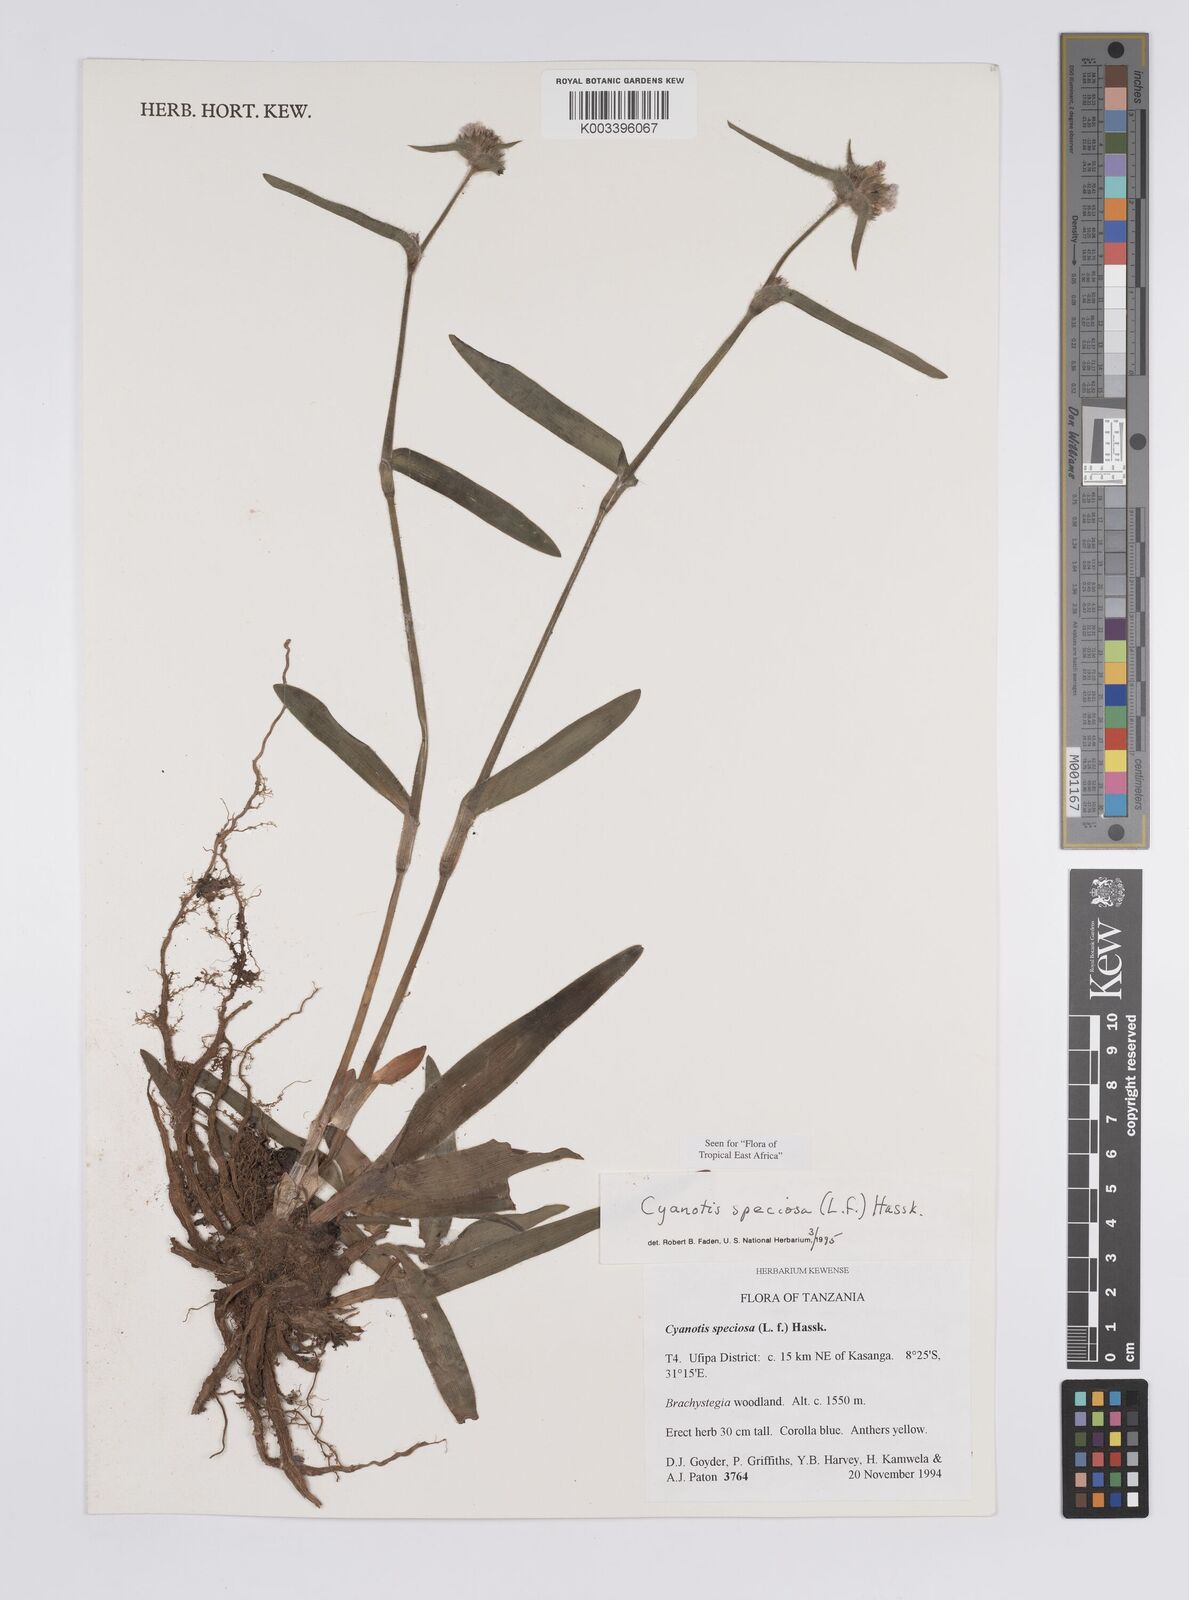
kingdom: Plantae
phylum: Tracheophyta
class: Liliopsida
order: Commelinales
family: Commelinaceae
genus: Cyanotis
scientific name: Cyanotis speciosa
